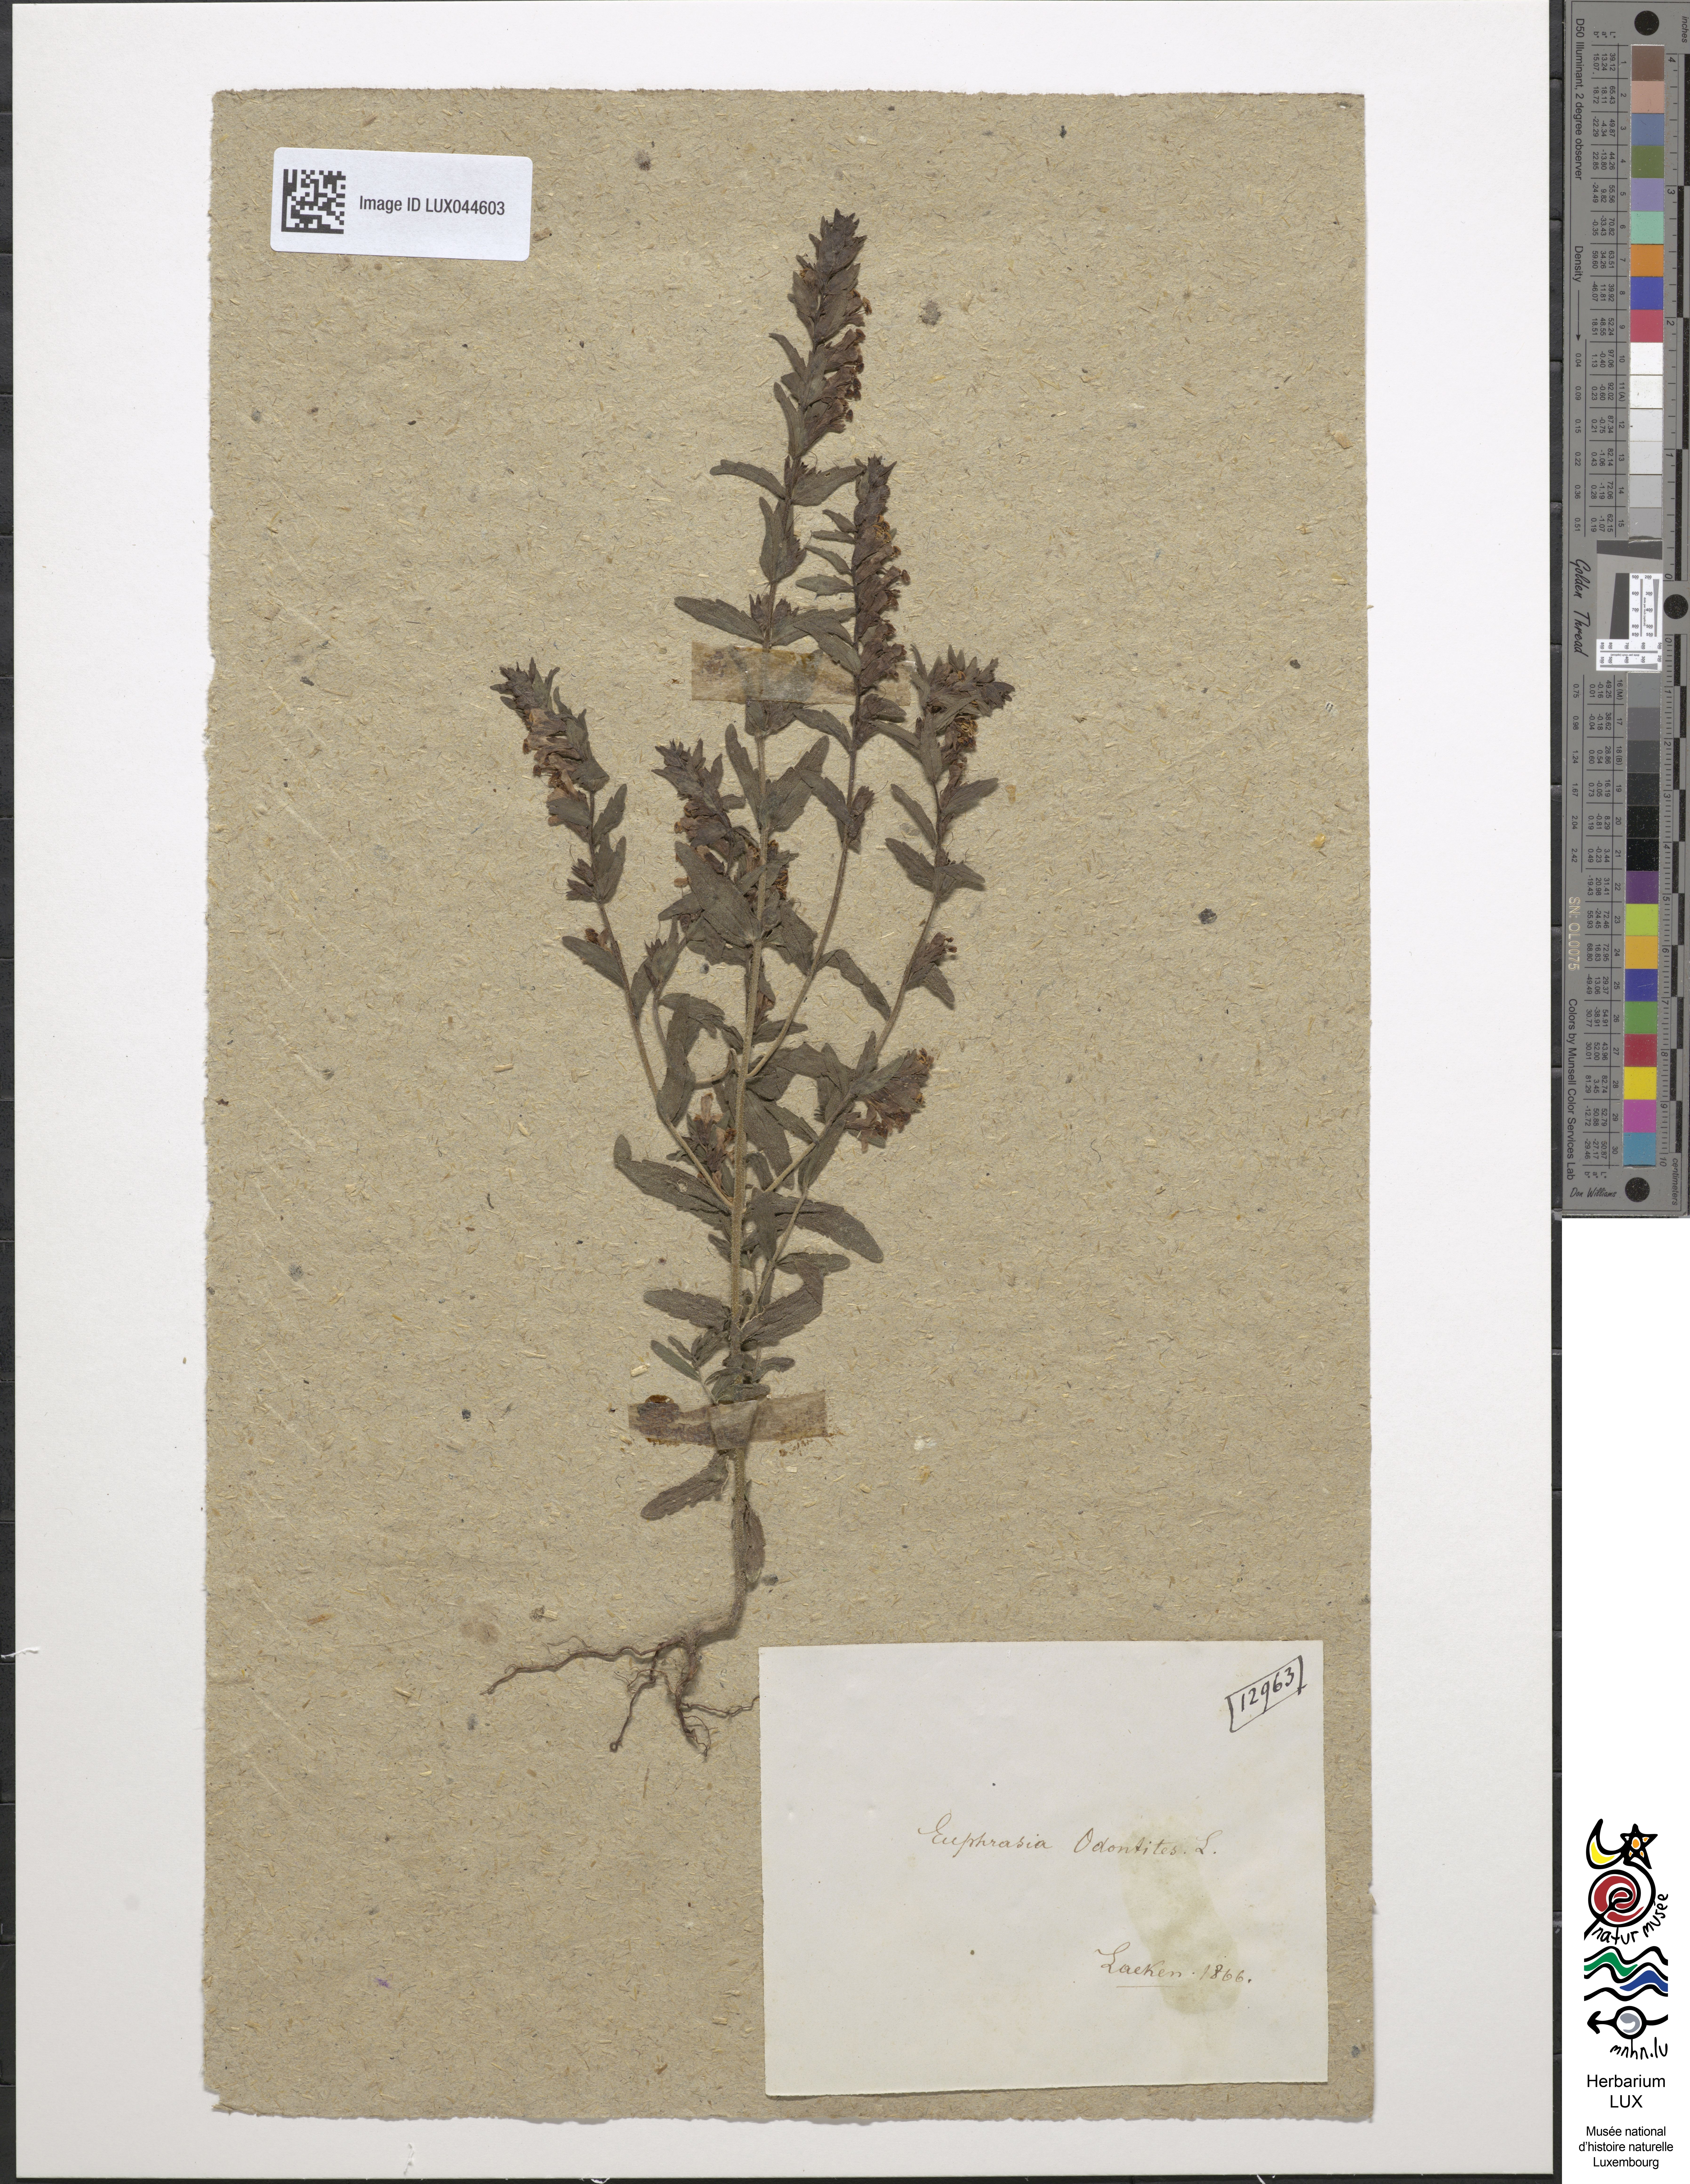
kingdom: Plantae
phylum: Tracheophyta
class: Magnoliopsida
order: Lamiales
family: Orobanchaceae
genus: Odontites
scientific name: Odontites vulgaris
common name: Broomrape
